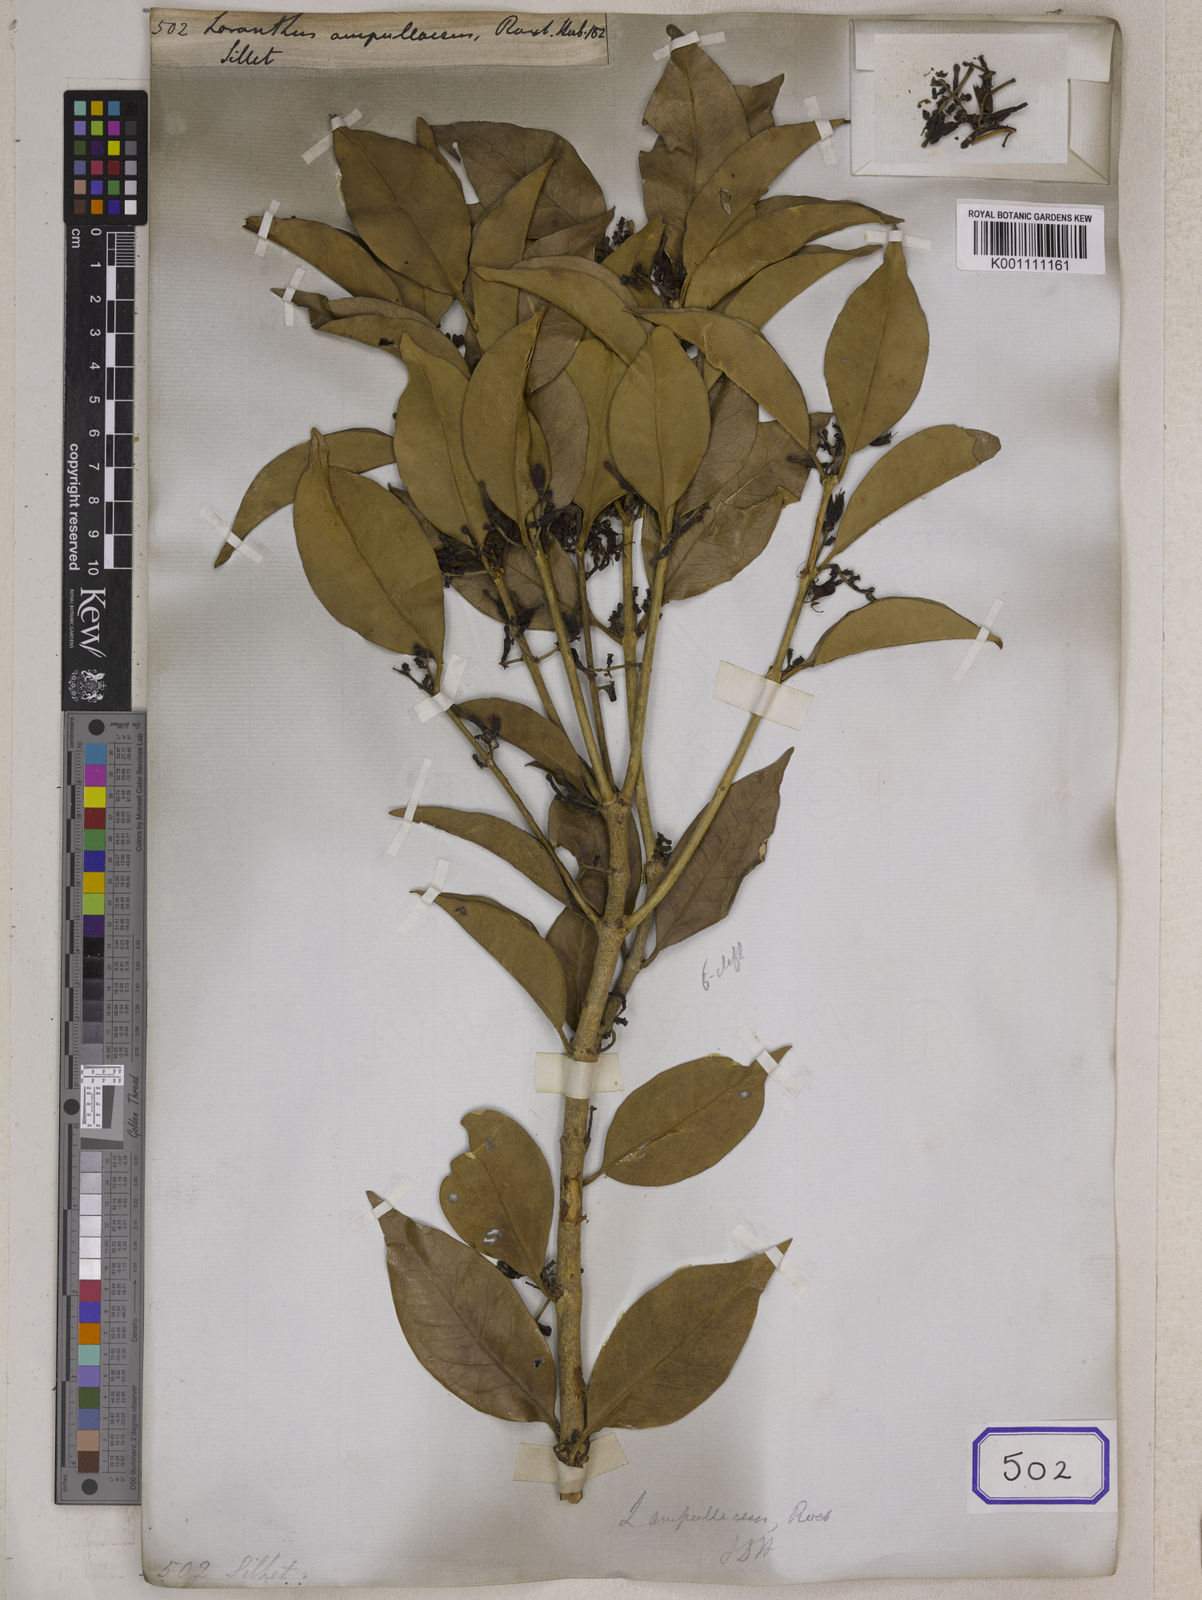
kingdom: Plantae
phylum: Tracheophyta
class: Magnoliopsida
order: Santalales
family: Loranthaceae
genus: Macrosolen
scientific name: Macrosolen cochinchinensis
